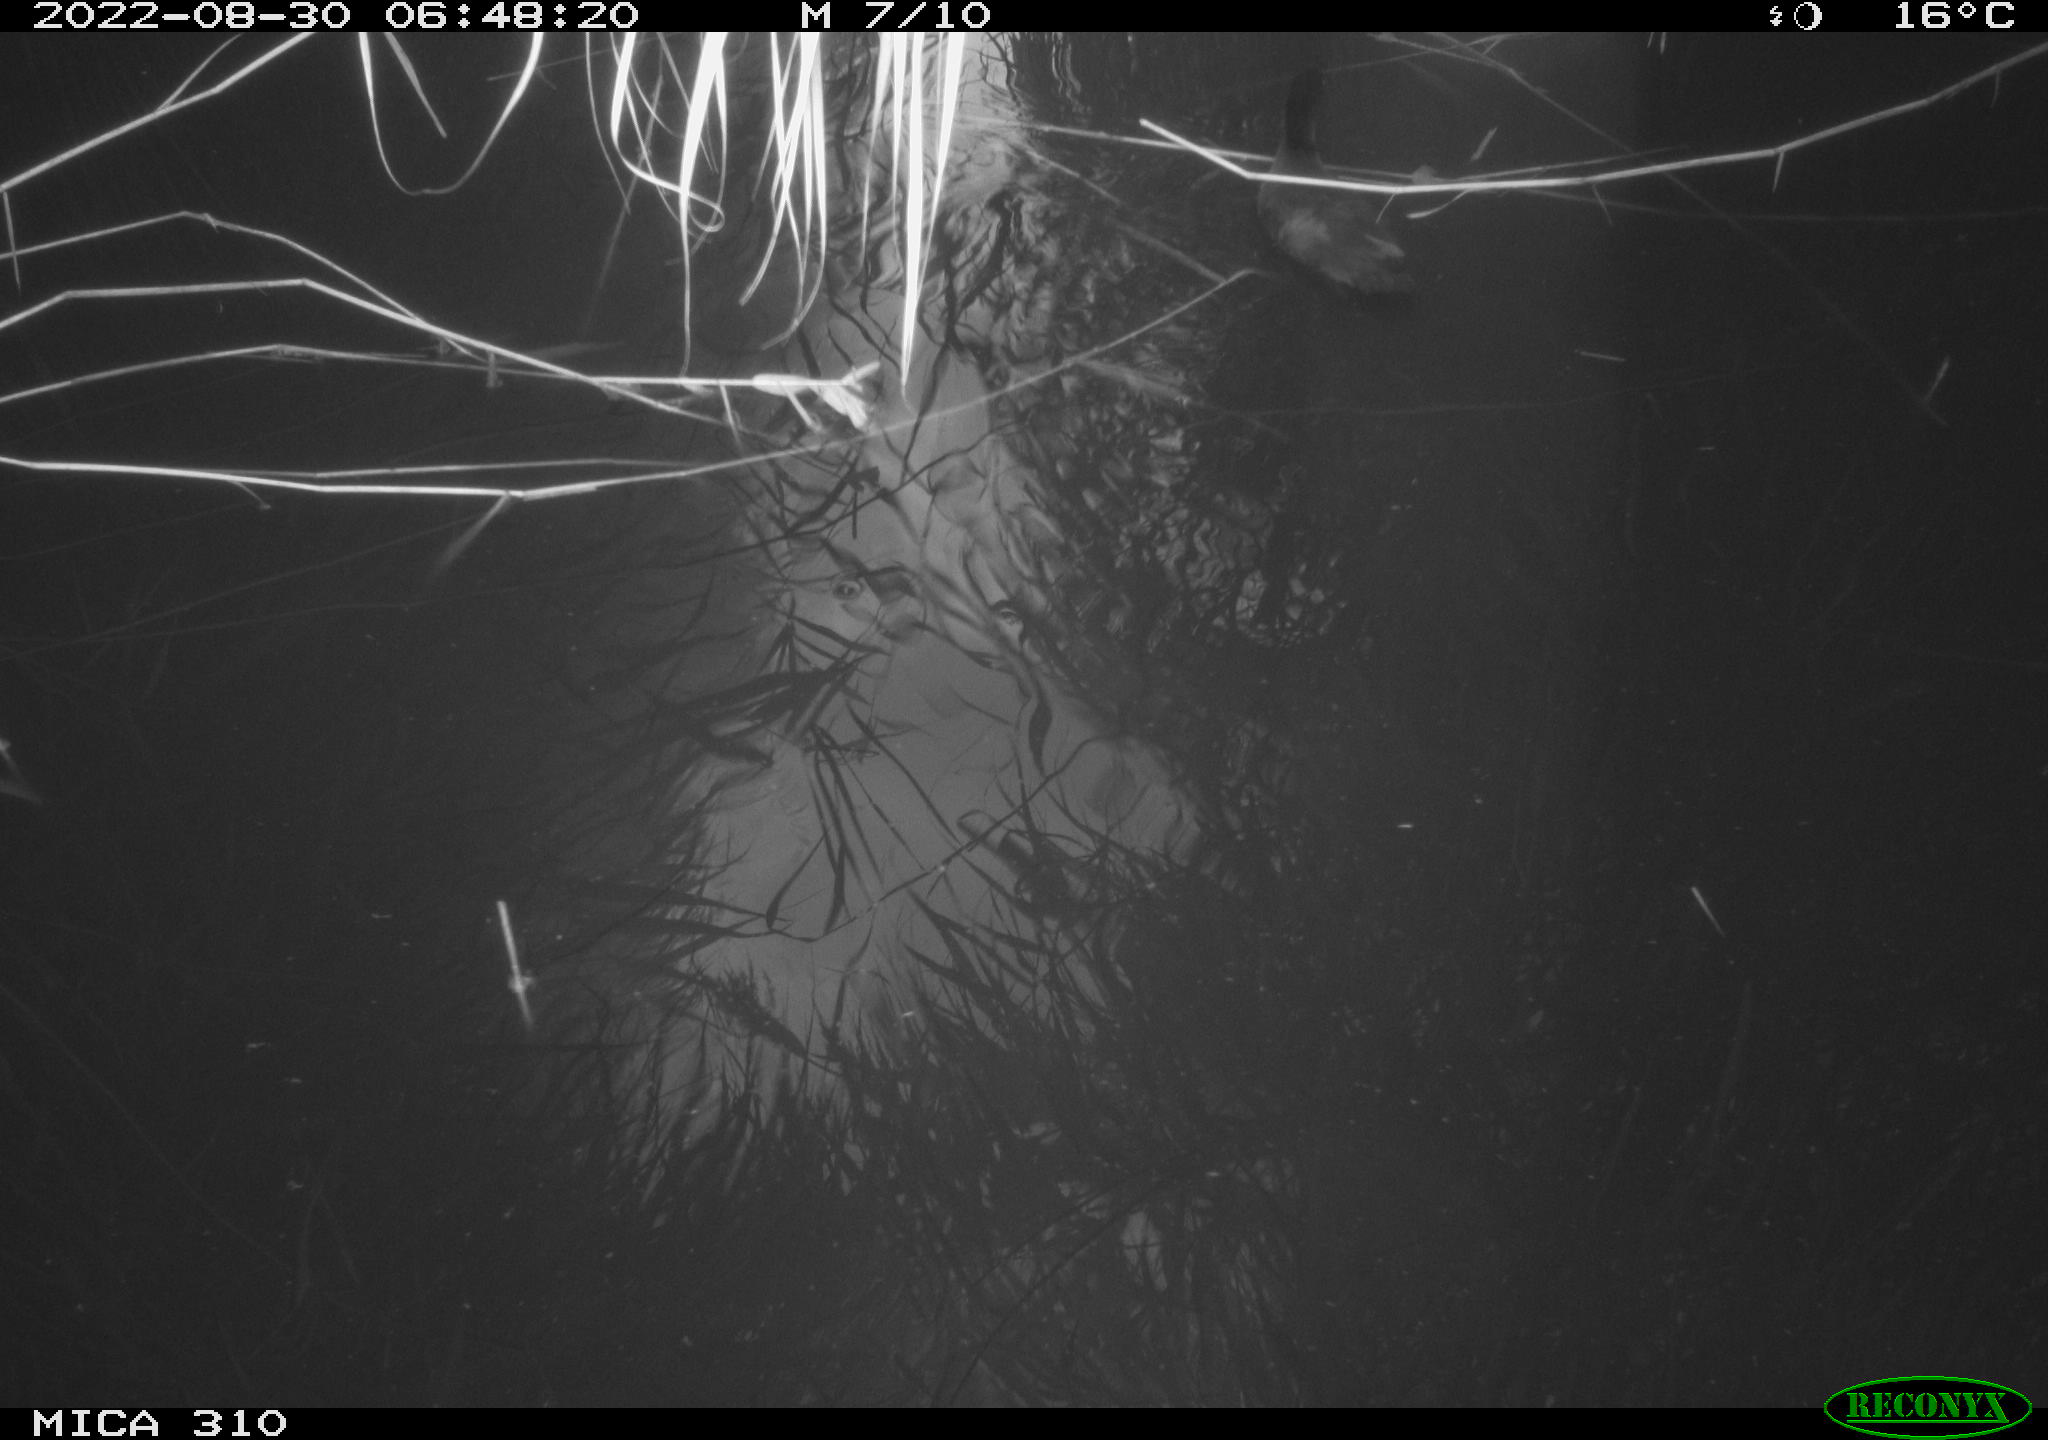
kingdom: Animalia
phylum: Chordata
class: Aves
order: Gruiformes
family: Rallidae
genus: Gallinula
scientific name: Gallinula chloropus
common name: Common moorhen
